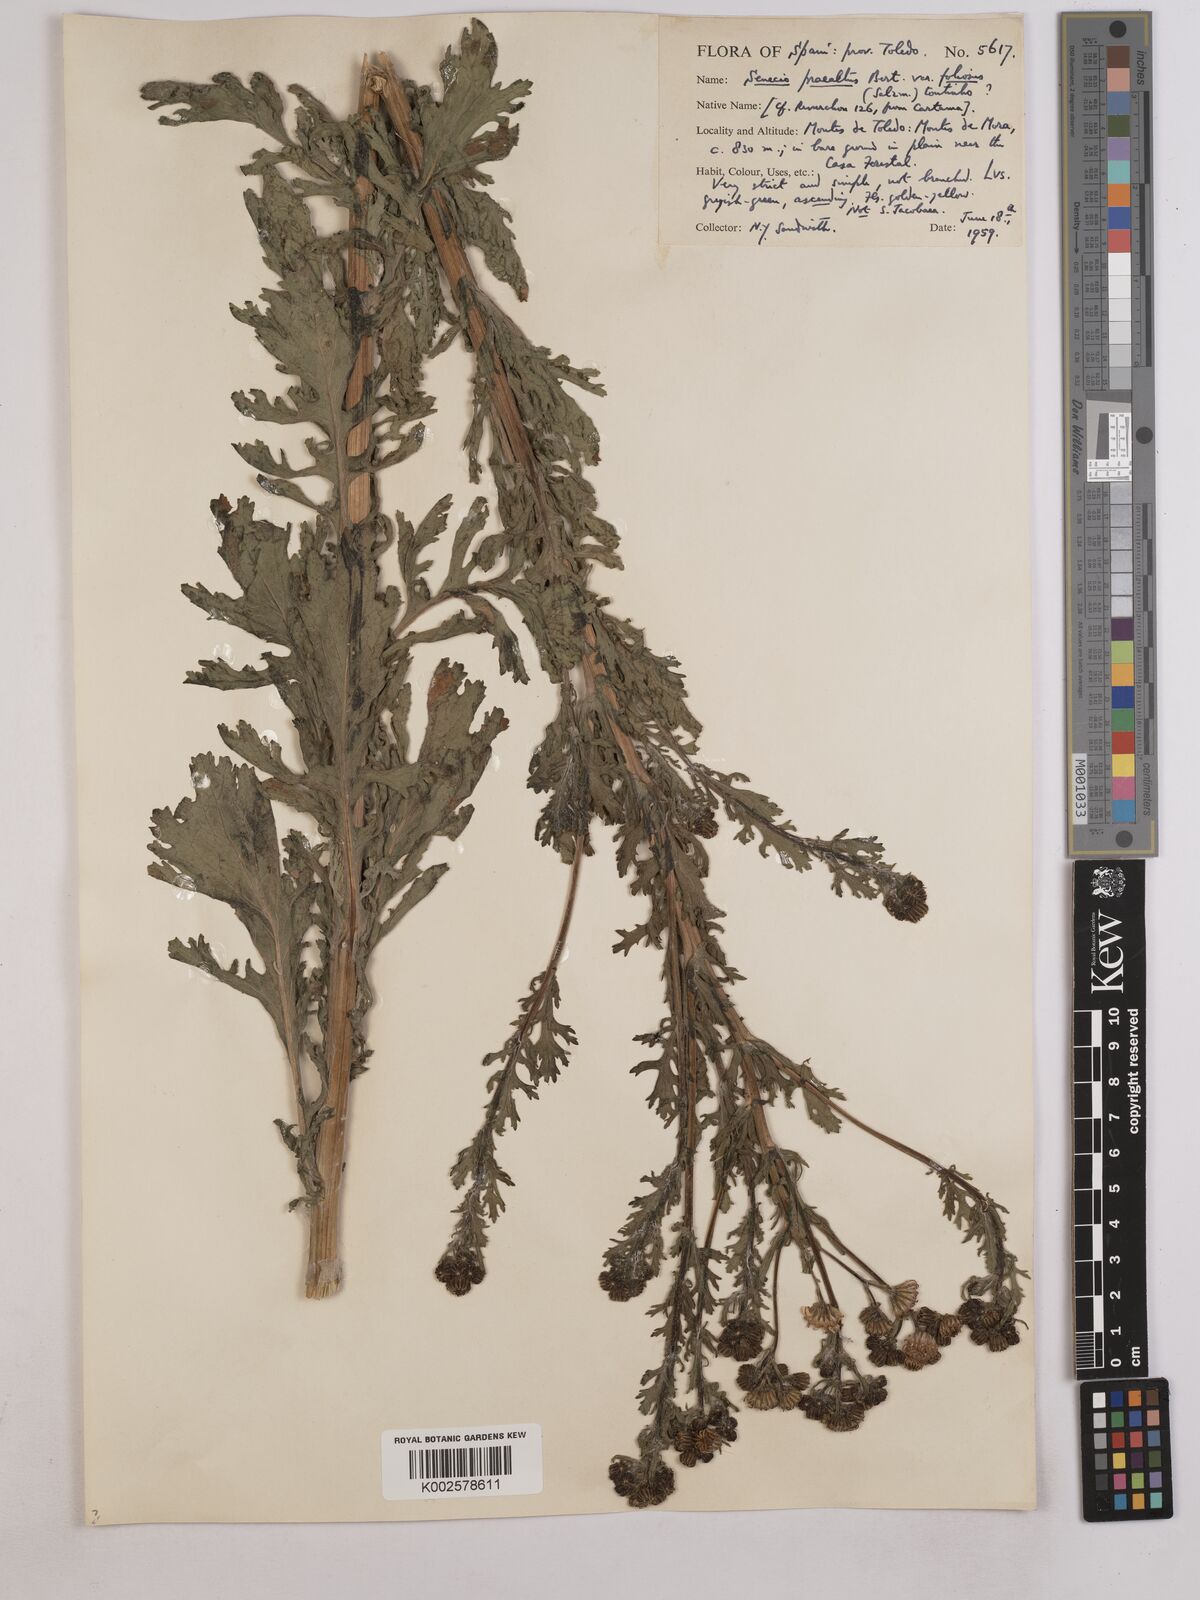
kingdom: Plantae
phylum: Tracheophyta
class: Magnoliopsida
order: Asterales
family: Asteraceae
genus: Jacobaea
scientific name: Jacobaea vulgaris
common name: Stinking willie
